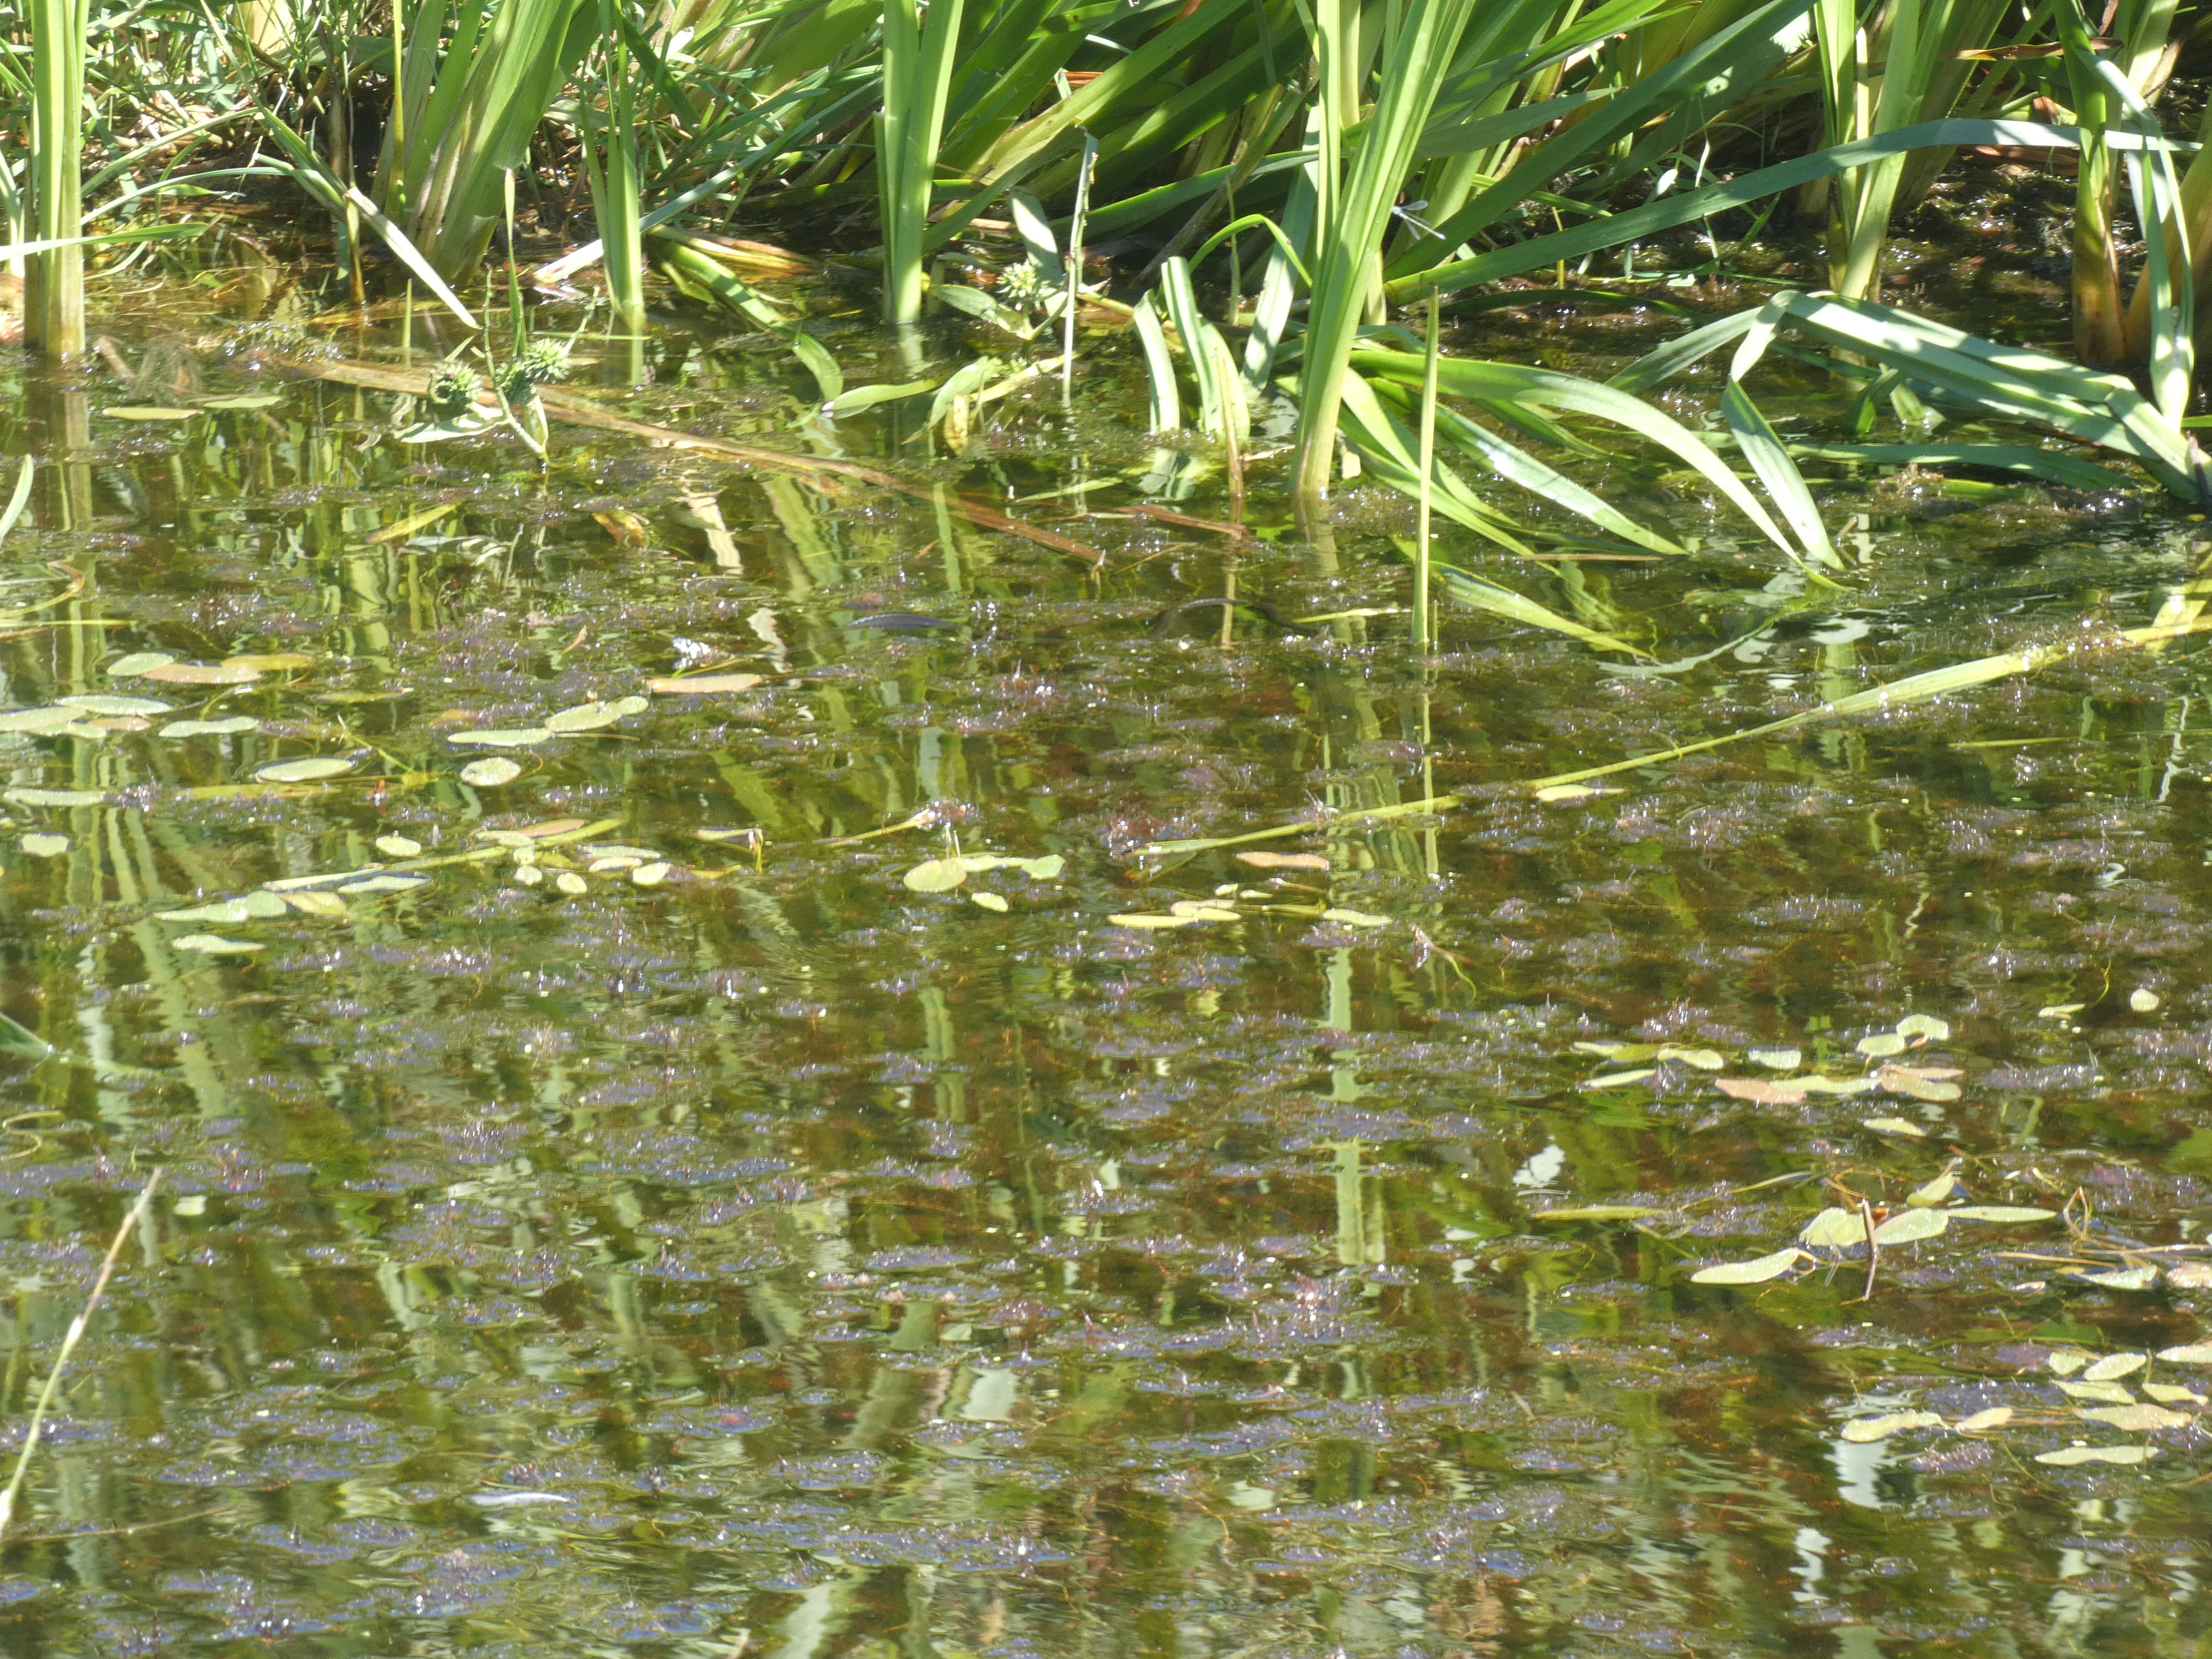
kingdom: Animalia
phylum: Chordata
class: Squamata
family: Colubridae
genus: Natrix
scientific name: Natrix natrix
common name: Snog
